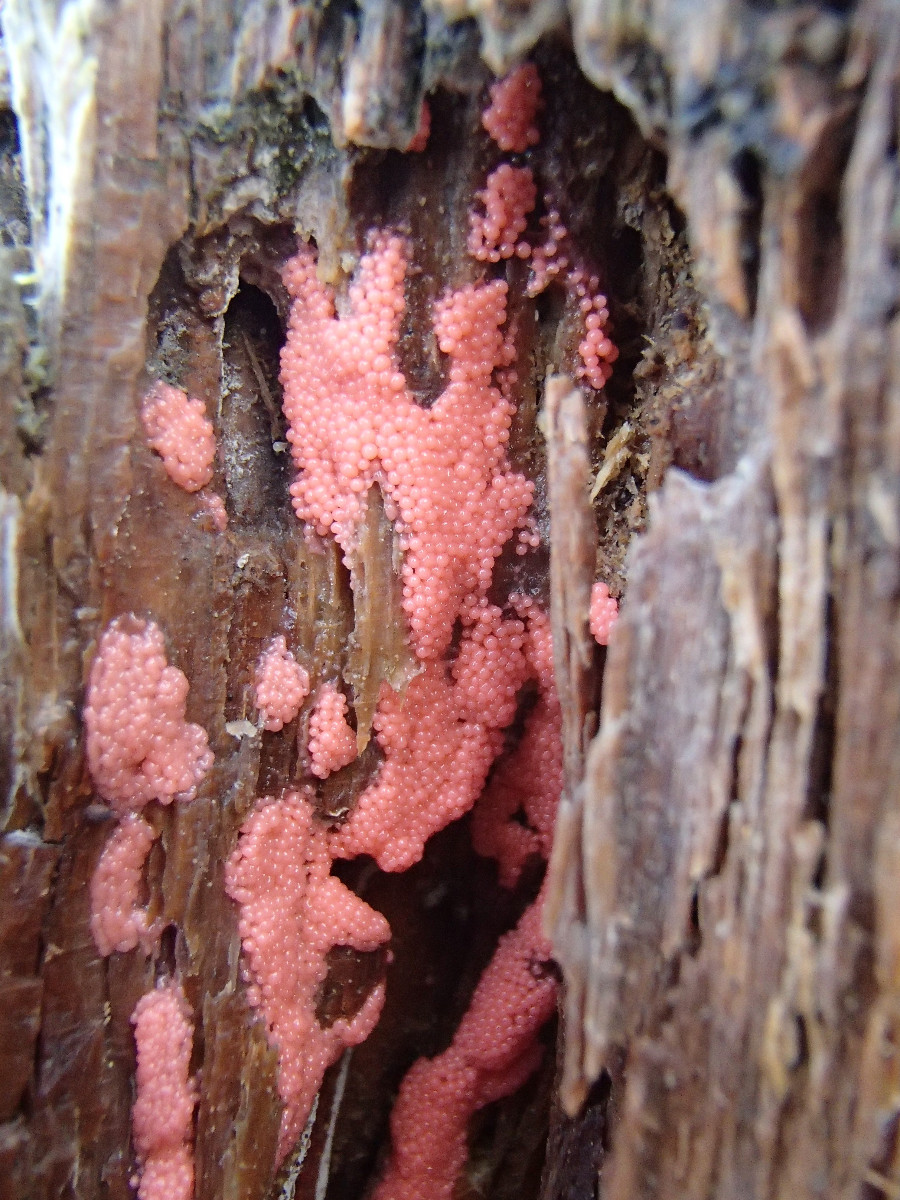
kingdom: Protozoa
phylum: Mycetozoa
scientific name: Mycetozoa
